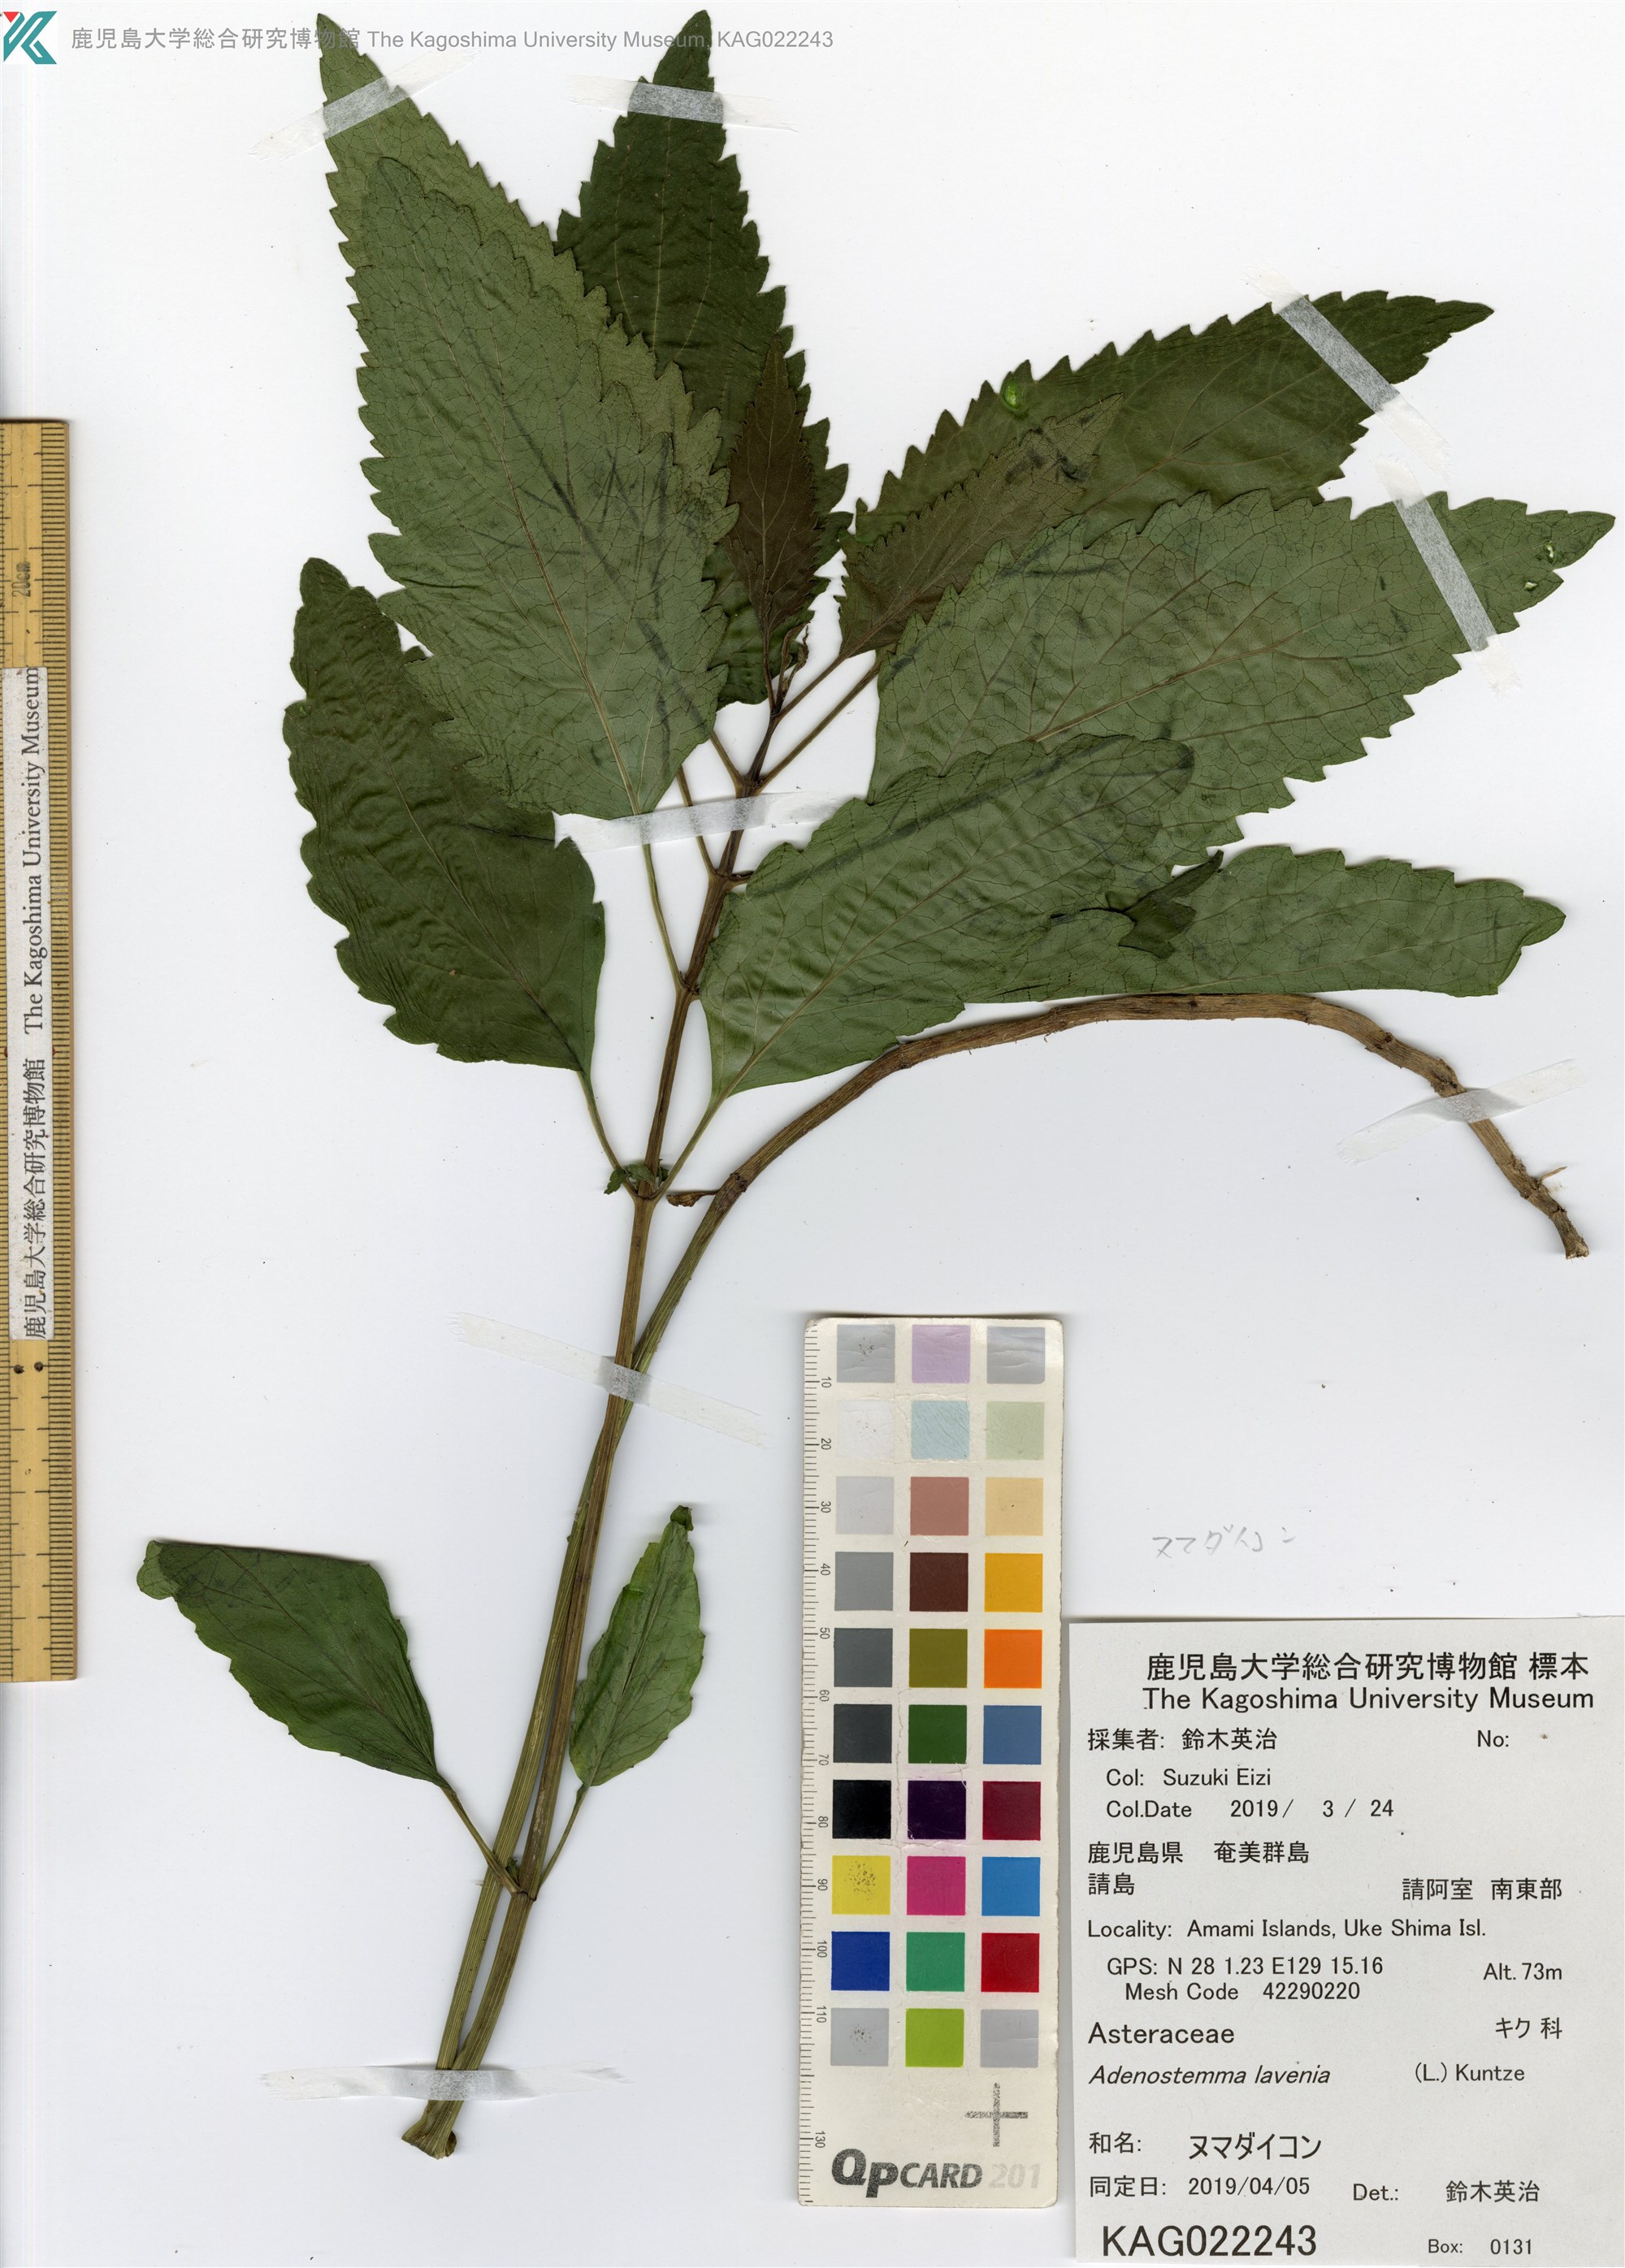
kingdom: Plantae
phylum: Tracheophyta
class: Magnoliopsida
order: Asterales
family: Asteraceae
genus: Adenostemma
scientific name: Adenostemma lavenia
